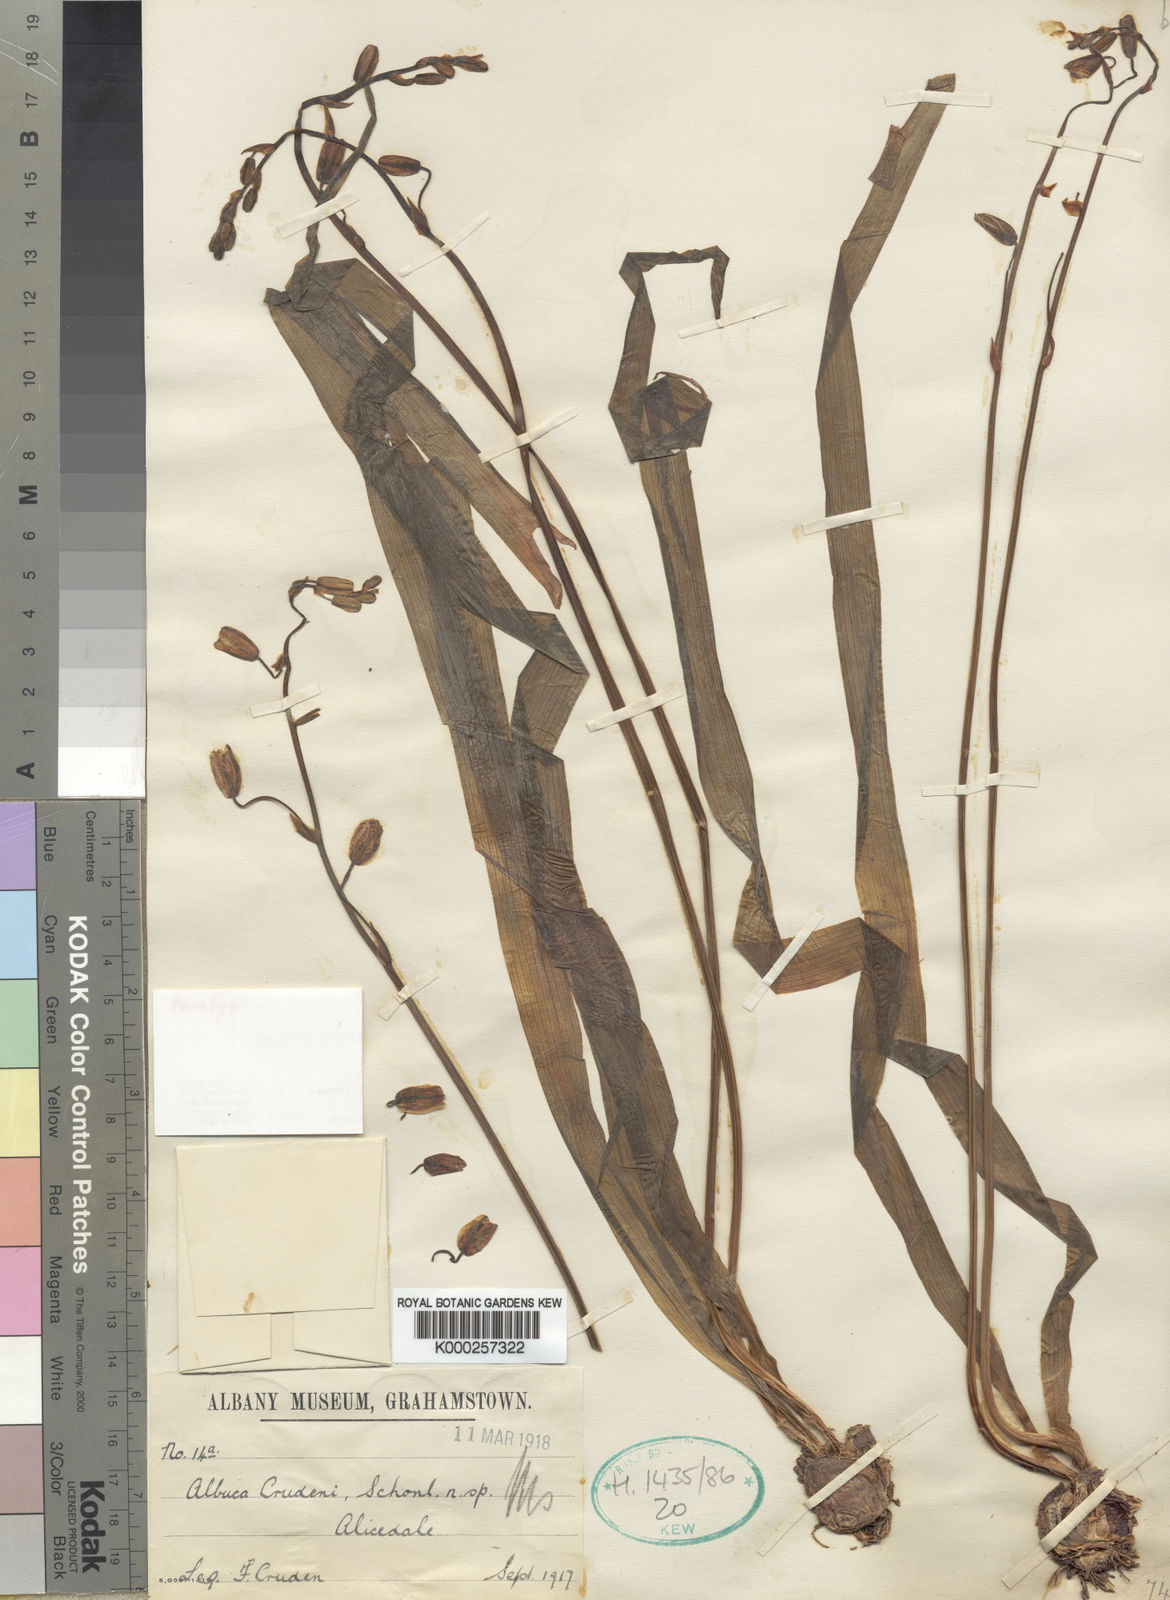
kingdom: Plantae
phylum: Tracheophyta
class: Liliopsida
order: Asparagales
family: Asparagaceae
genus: Albuca
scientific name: Albuca crudenii
